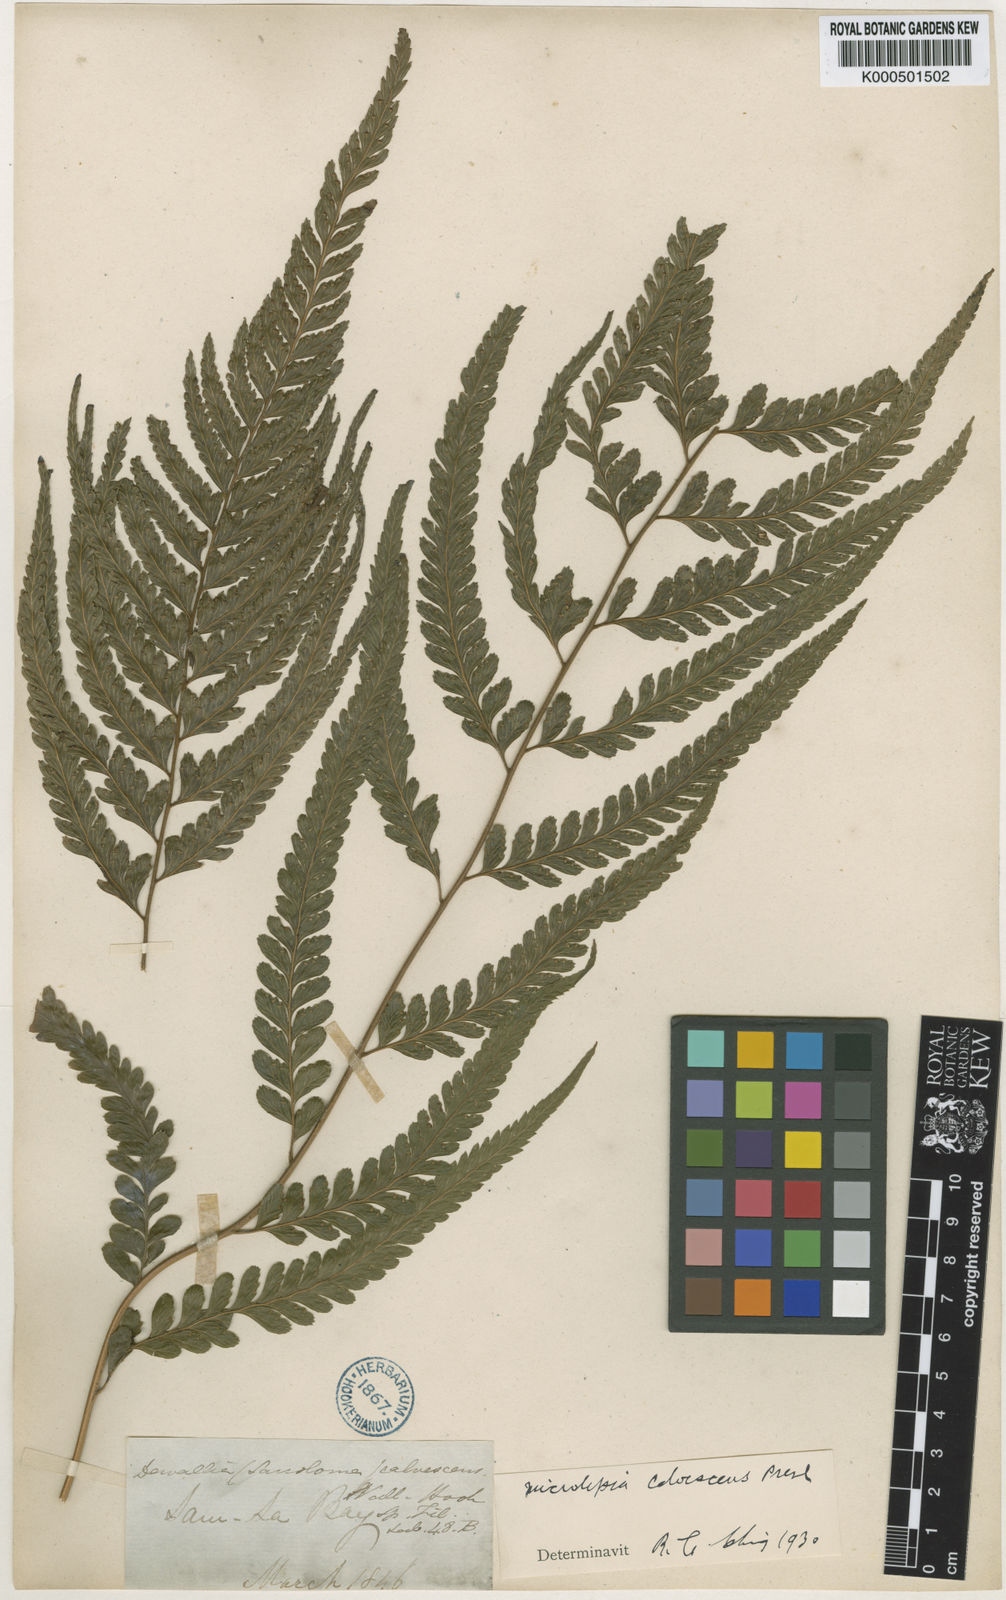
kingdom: Plantae
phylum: Tracheophyta
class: Polypodiopsida
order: Polypodiales
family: Dennstaedtiaceae
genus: Microlepia
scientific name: Microlepia
